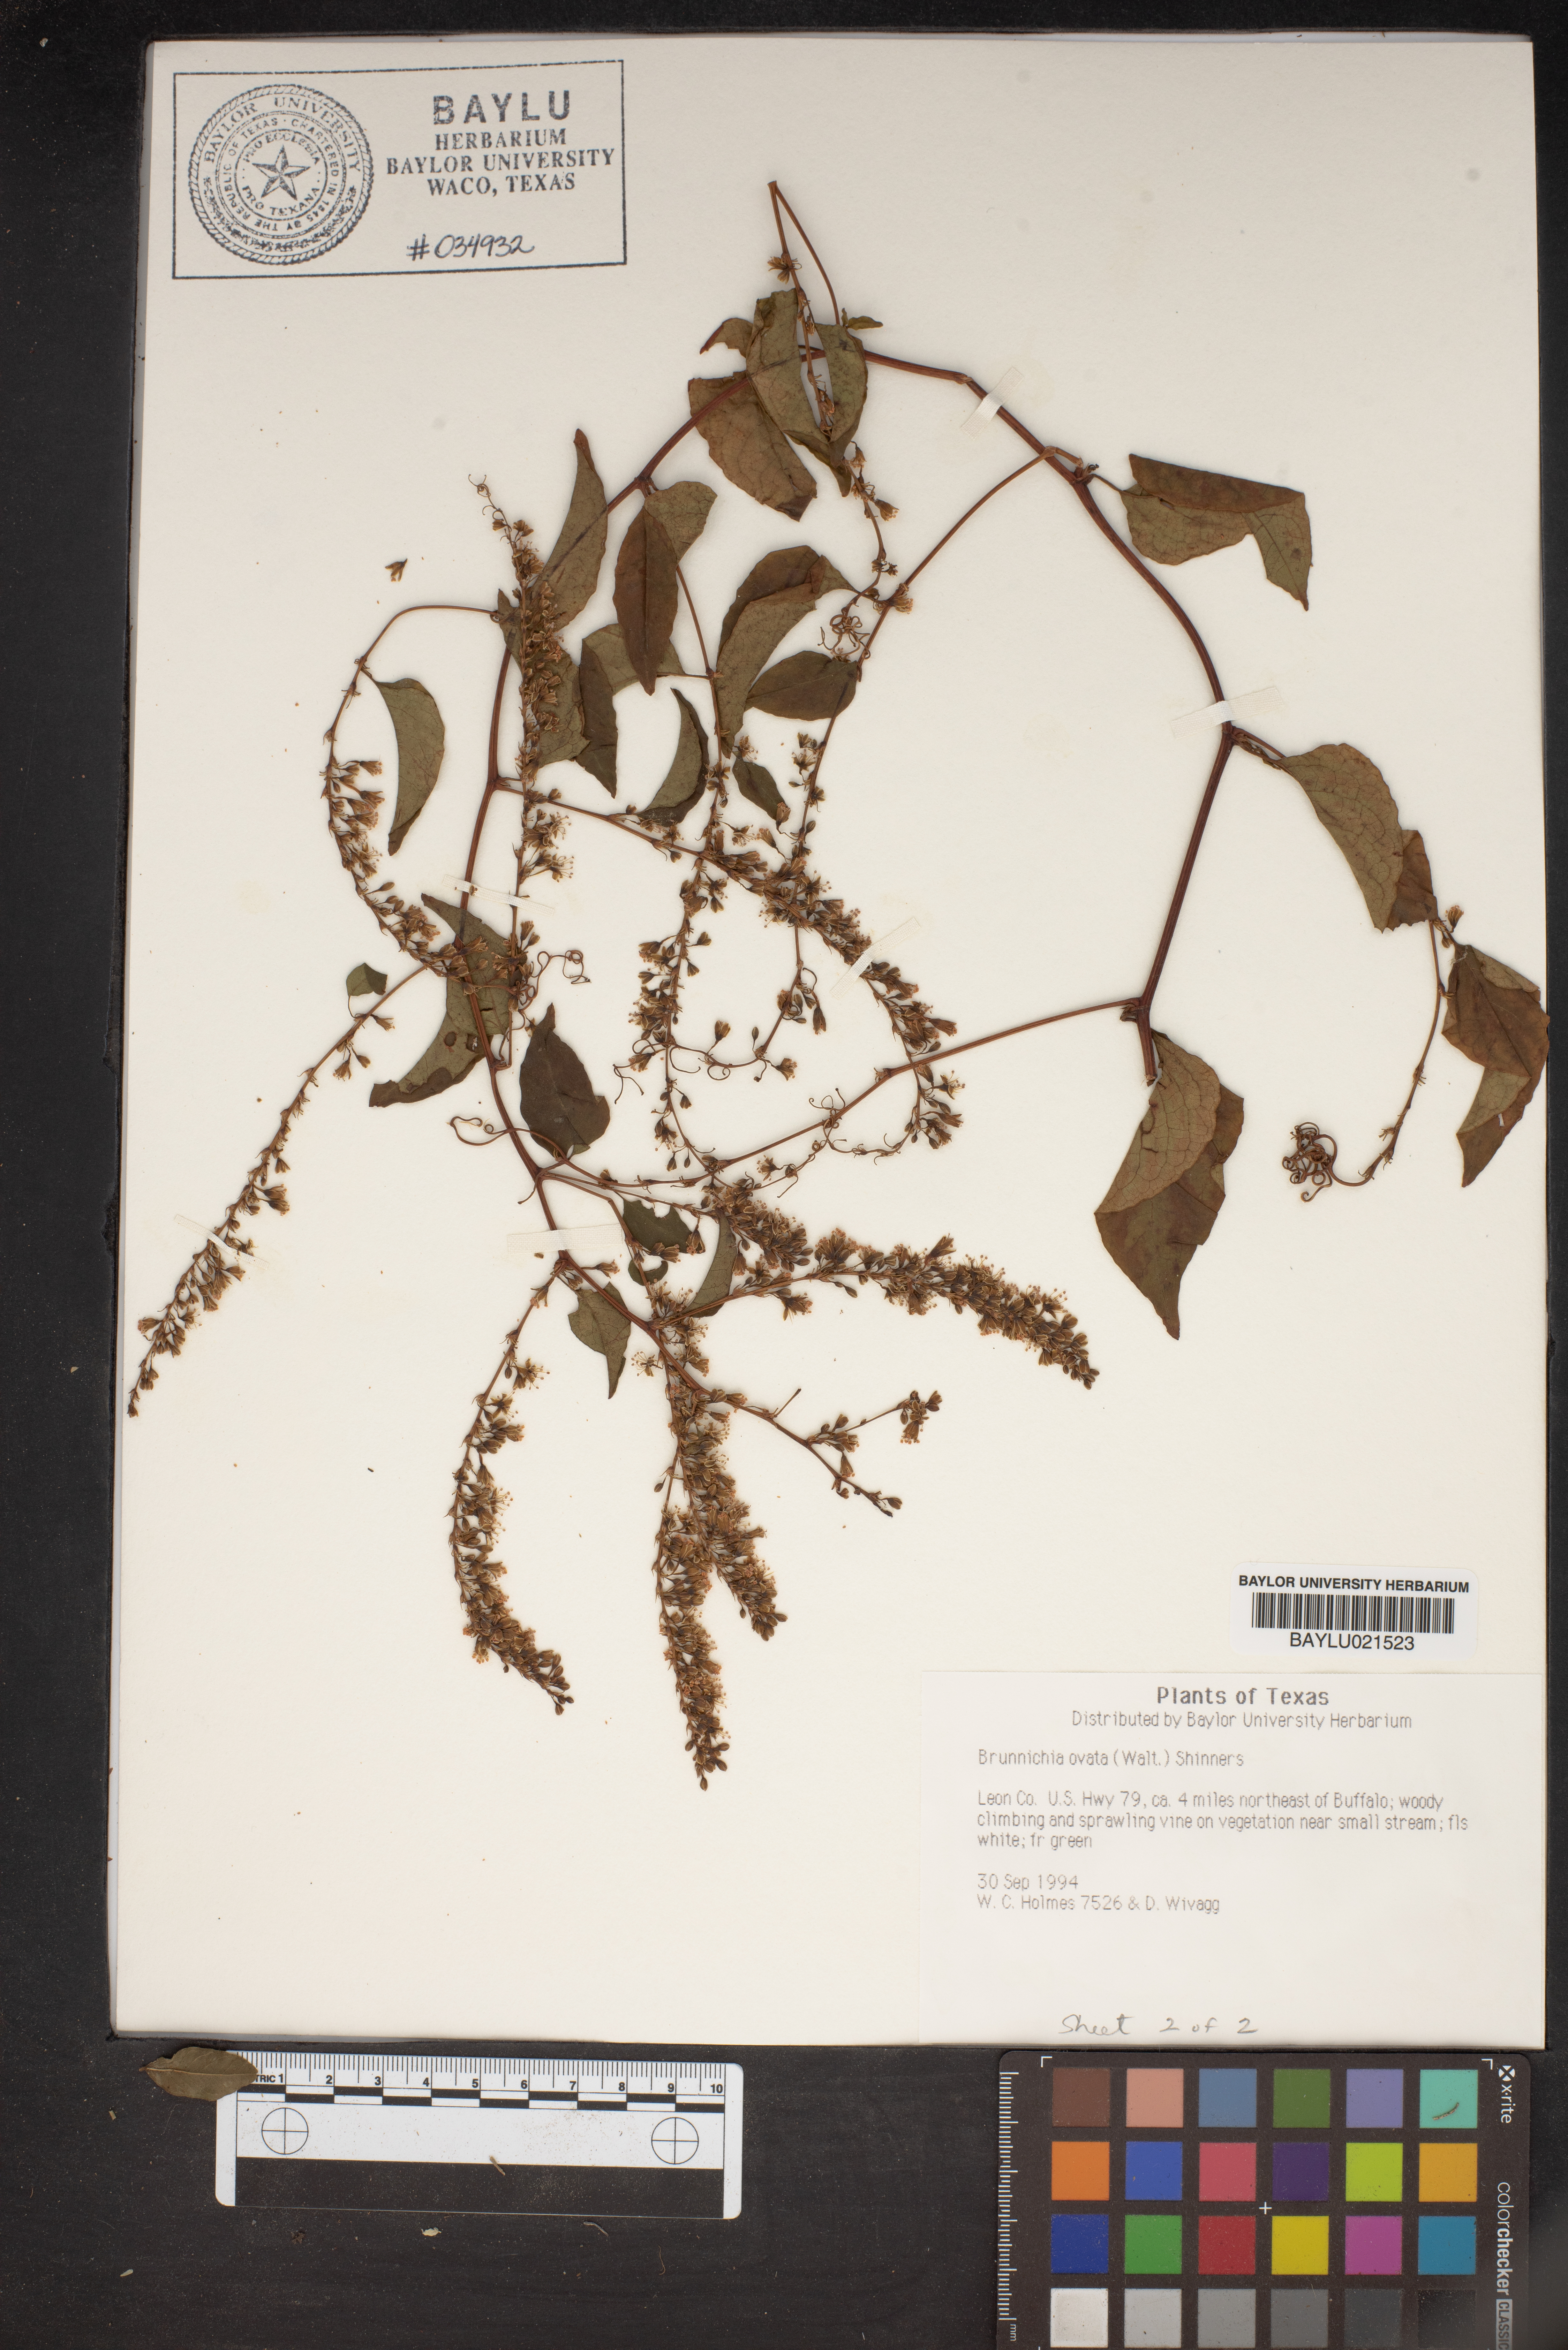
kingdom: Plantae
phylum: Tracheophyta
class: Magnoliopsida
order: Caryophyllales
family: Polygonaceae
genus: Brunnichia
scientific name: Brunnichia ovata
